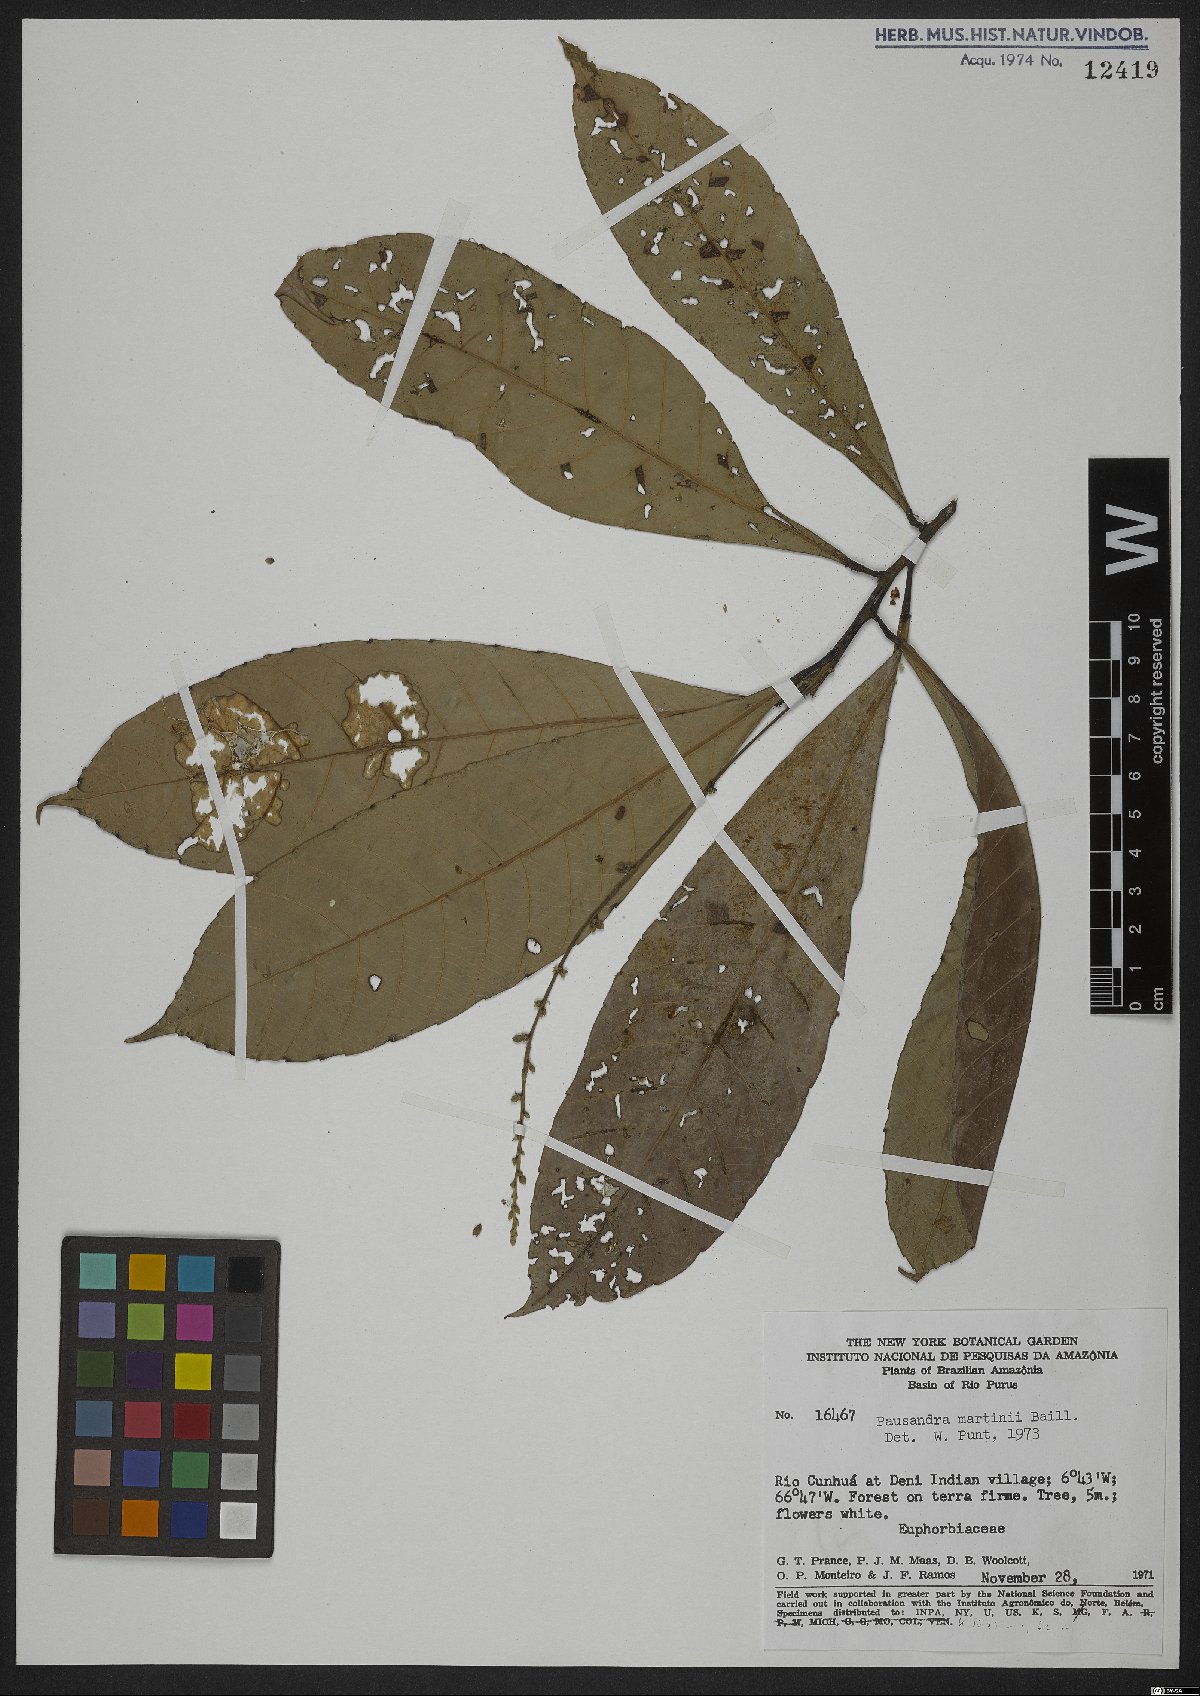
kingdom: Plantae
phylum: Tracheophyta
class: Magnoliopsida
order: Malpighiales
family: Euphorbiaceae
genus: Pausandra
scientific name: Pausandra martini
